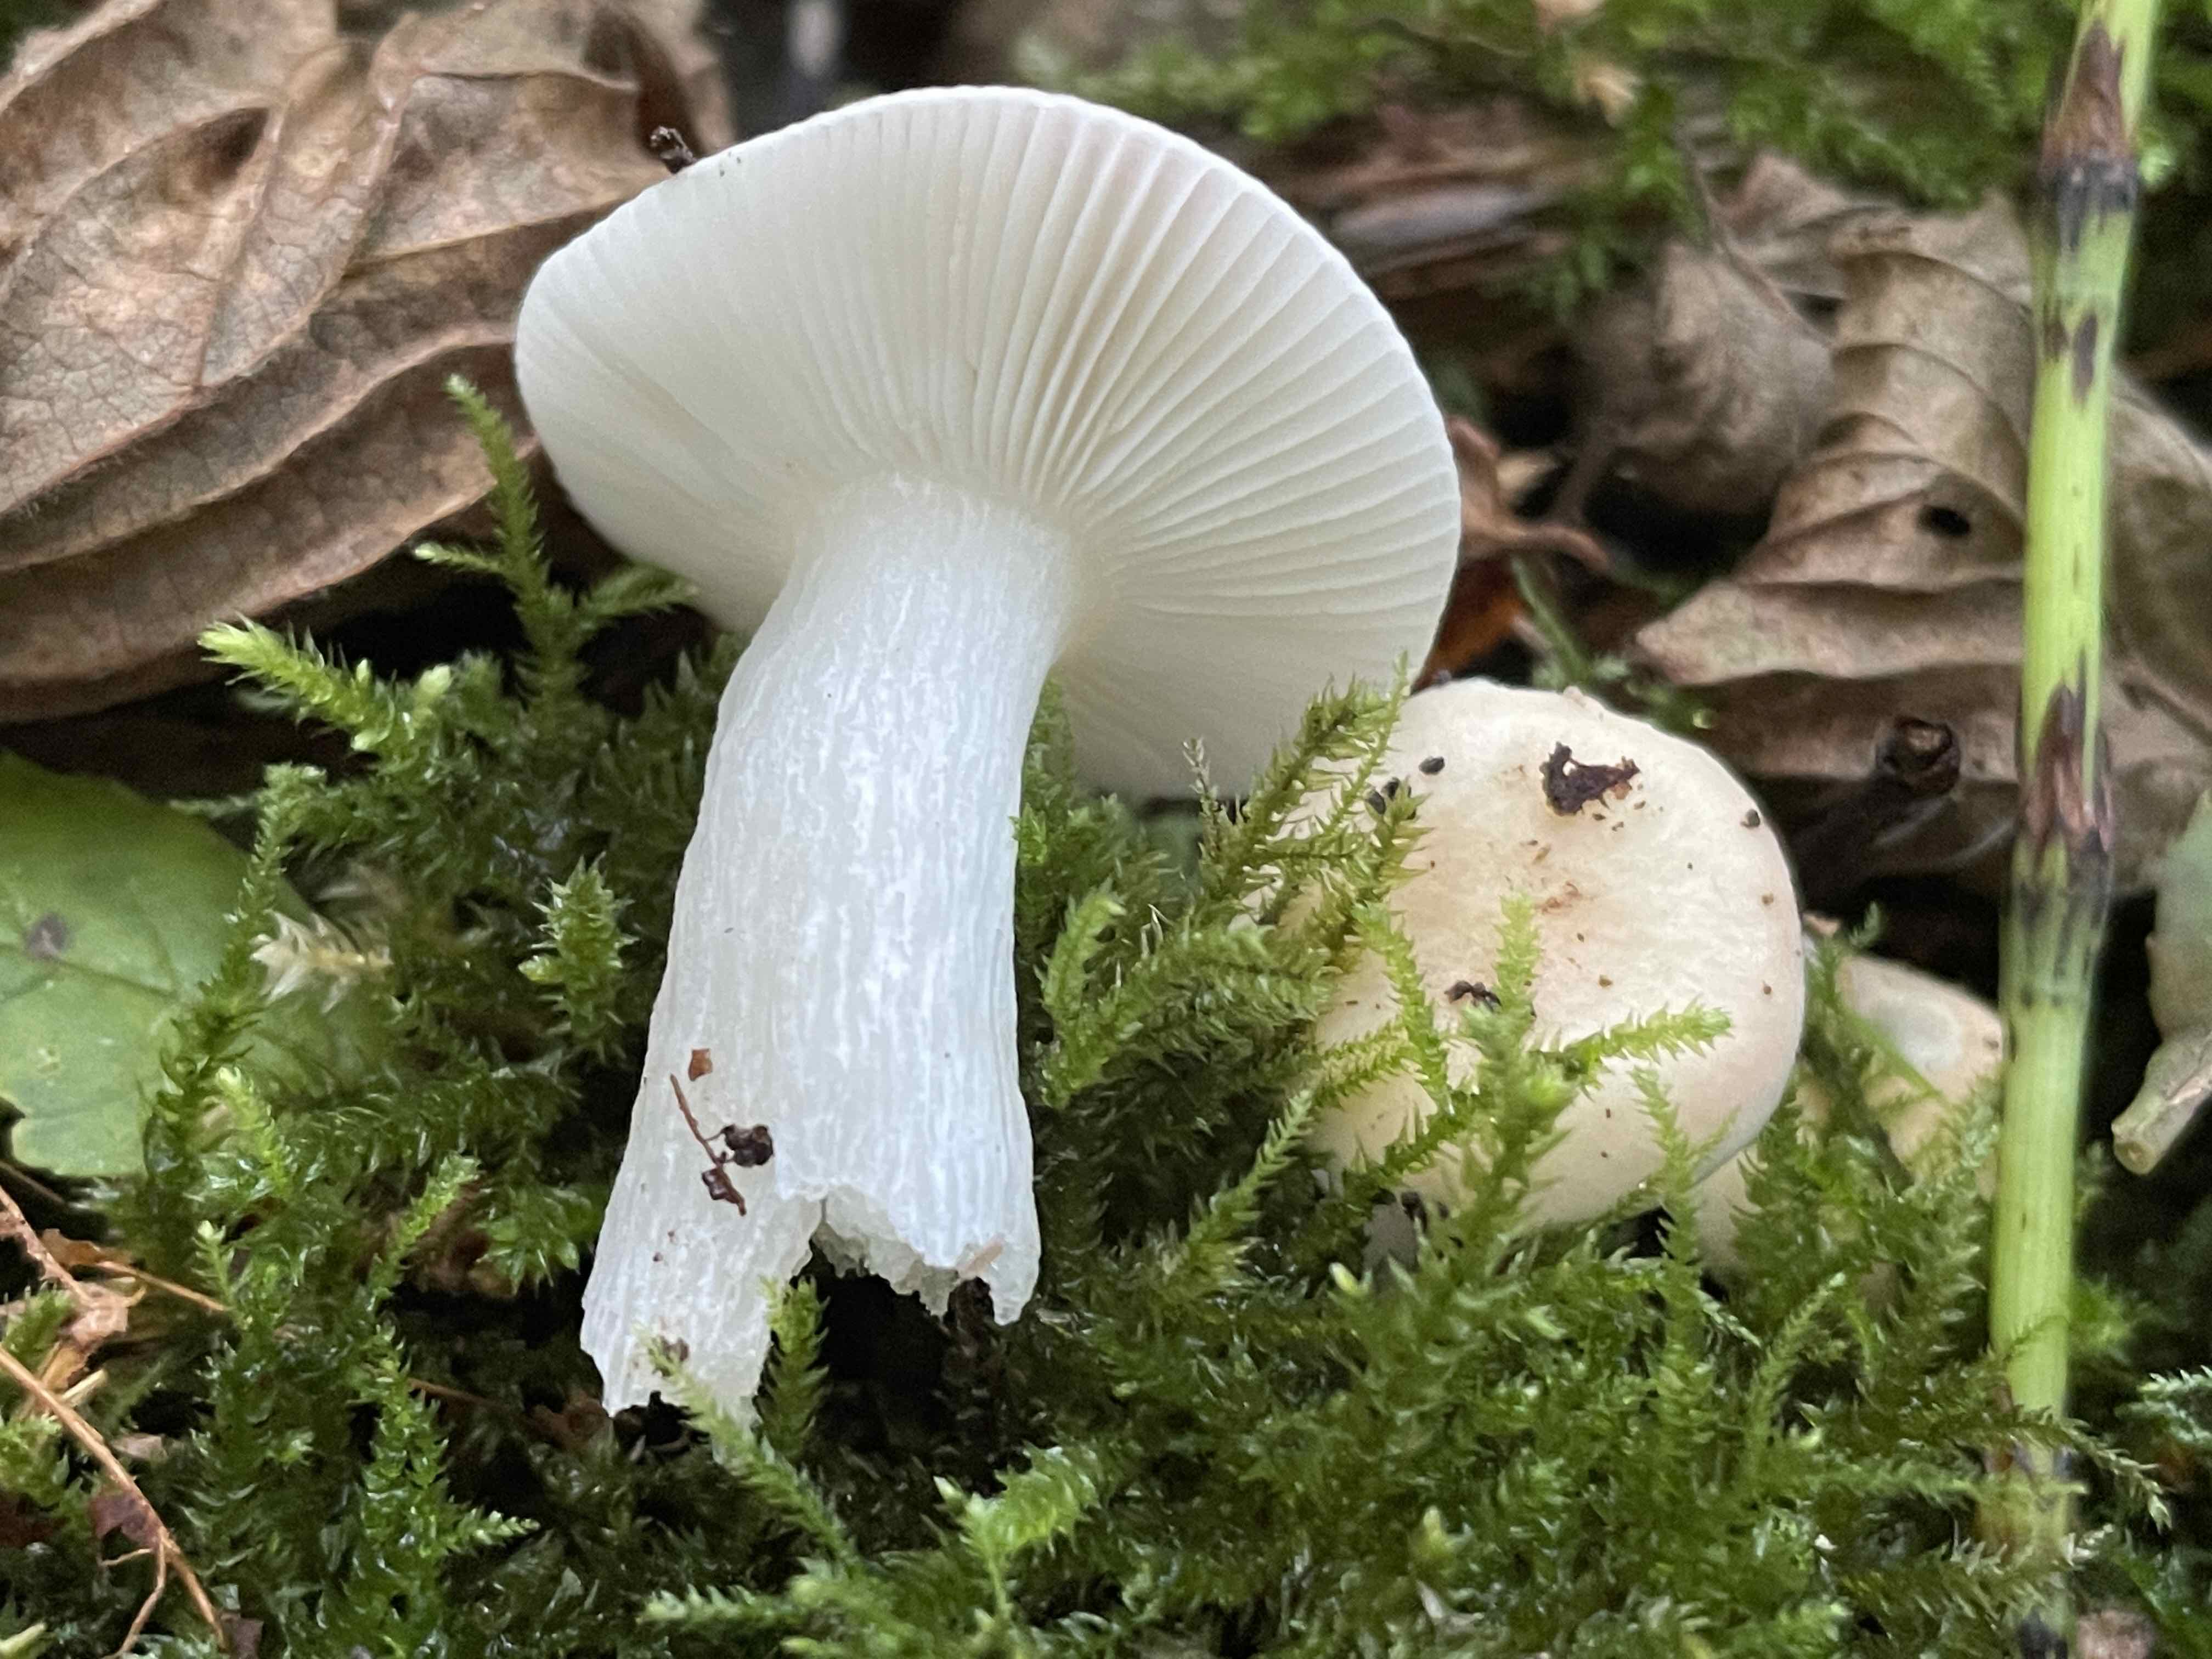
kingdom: Fungi
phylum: Basidiomycota
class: Agaricomycetes
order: Russulales
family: Russulaceae
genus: Russula
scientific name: Russula betularum
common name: bleg gift-skørhat
